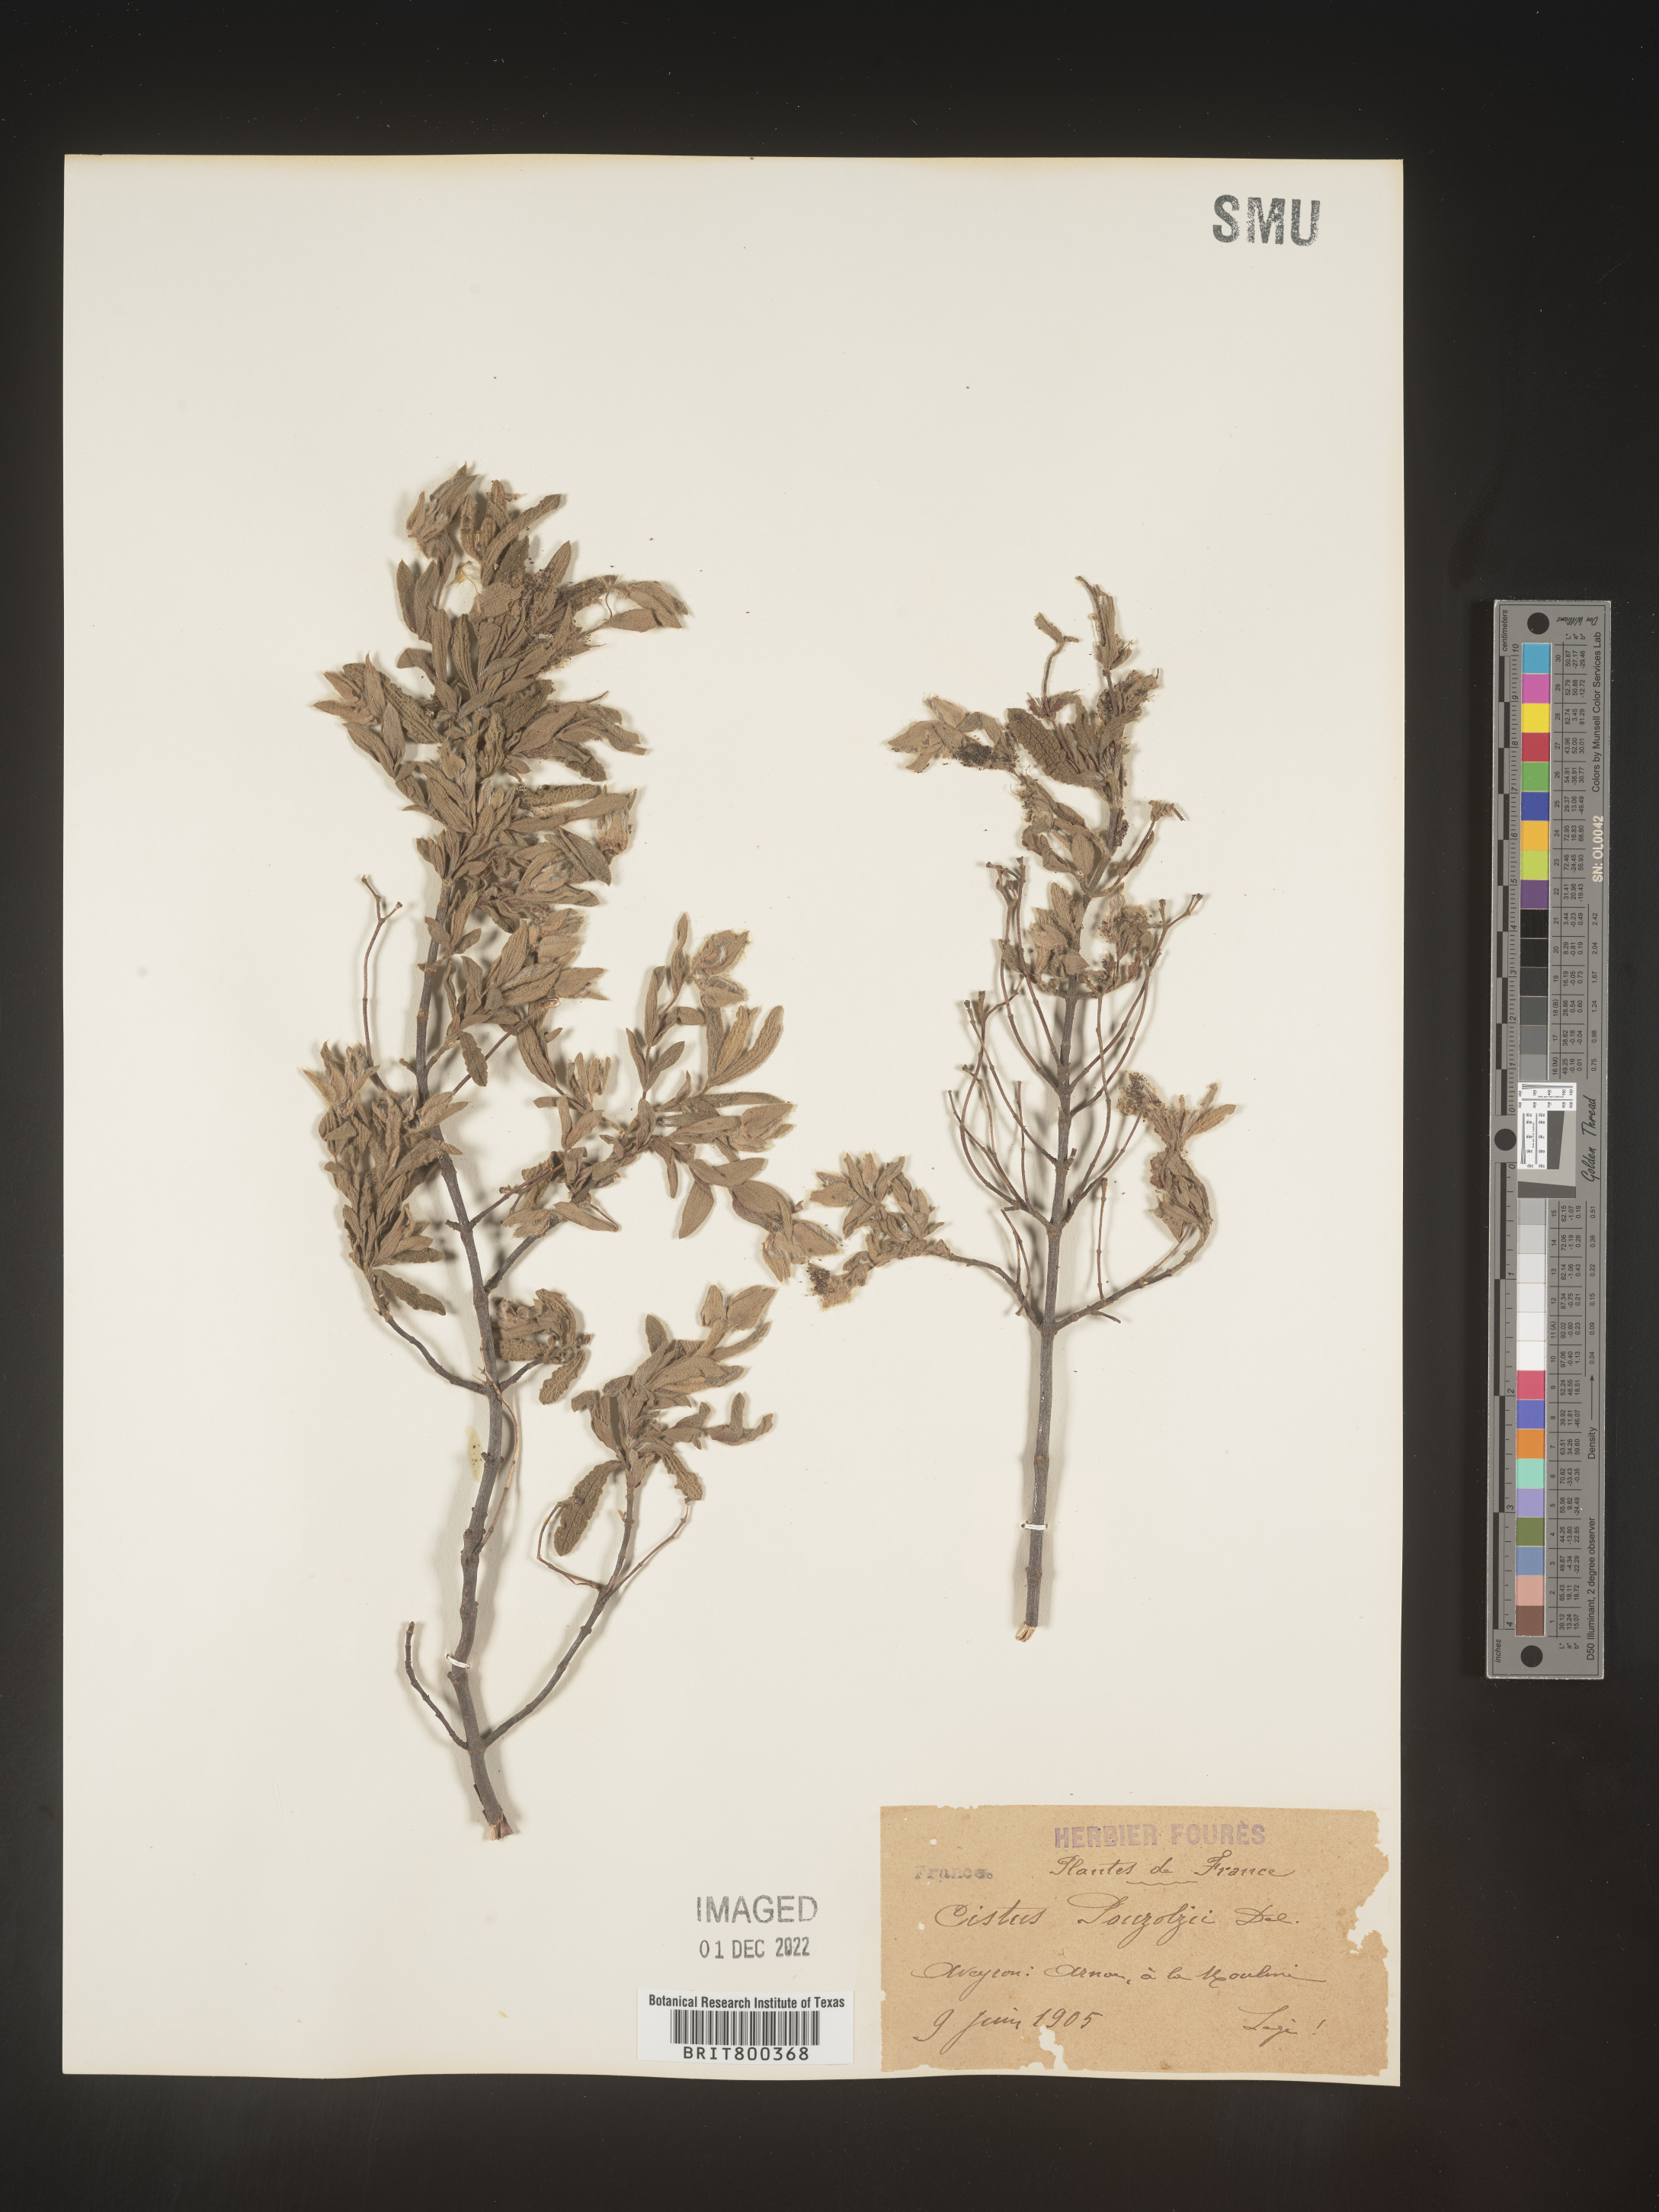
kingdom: Plantae
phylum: Tracheophyta
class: Magnoliopsida
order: Malvales
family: Cistaceae
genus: Cistus
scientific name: Cistus
